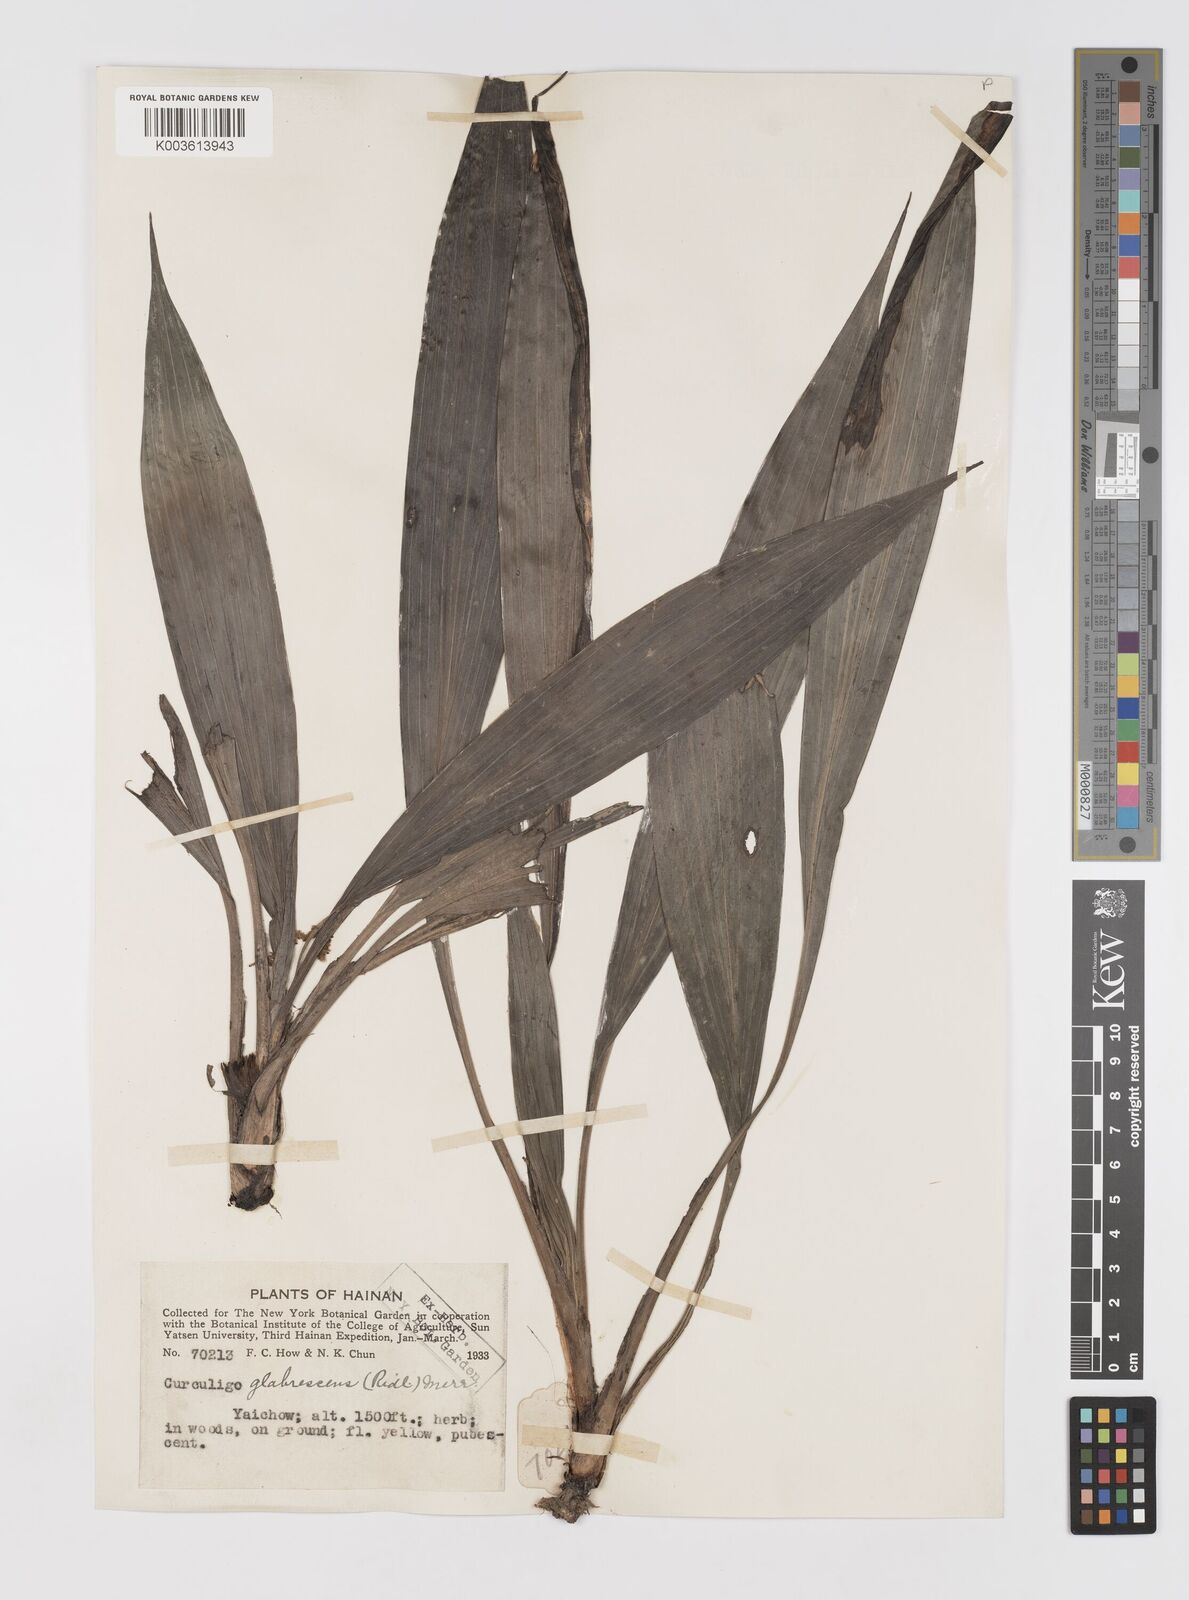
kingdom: Plantae
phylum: Tracheophyta
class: Liliopsida
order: Asparagales
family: Hypoxidaceae
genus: Curculigo
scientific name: Curculigo latifolia
